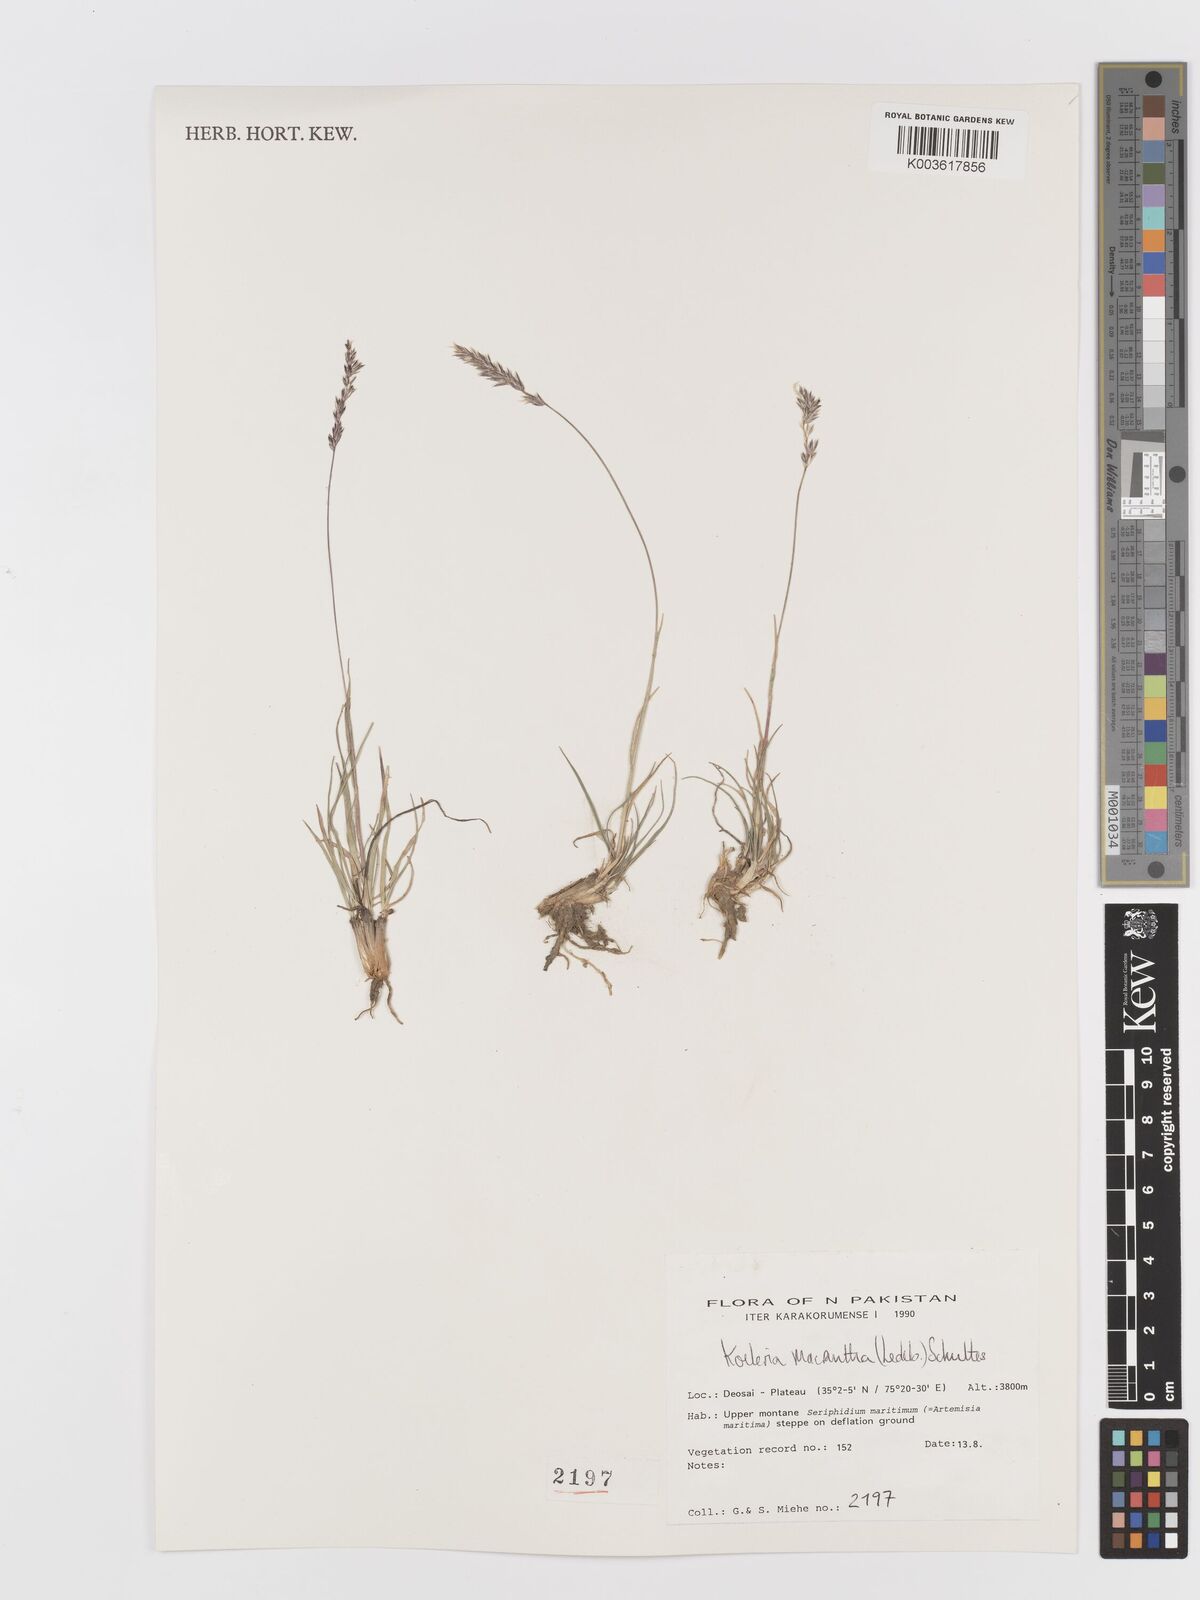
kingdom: Plantae
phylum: Tracheophyta
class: Liliopsida
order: Poales
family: Poaceae
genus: Koeleria
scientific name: Koeleria macrantha
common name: Crested hair-grass
